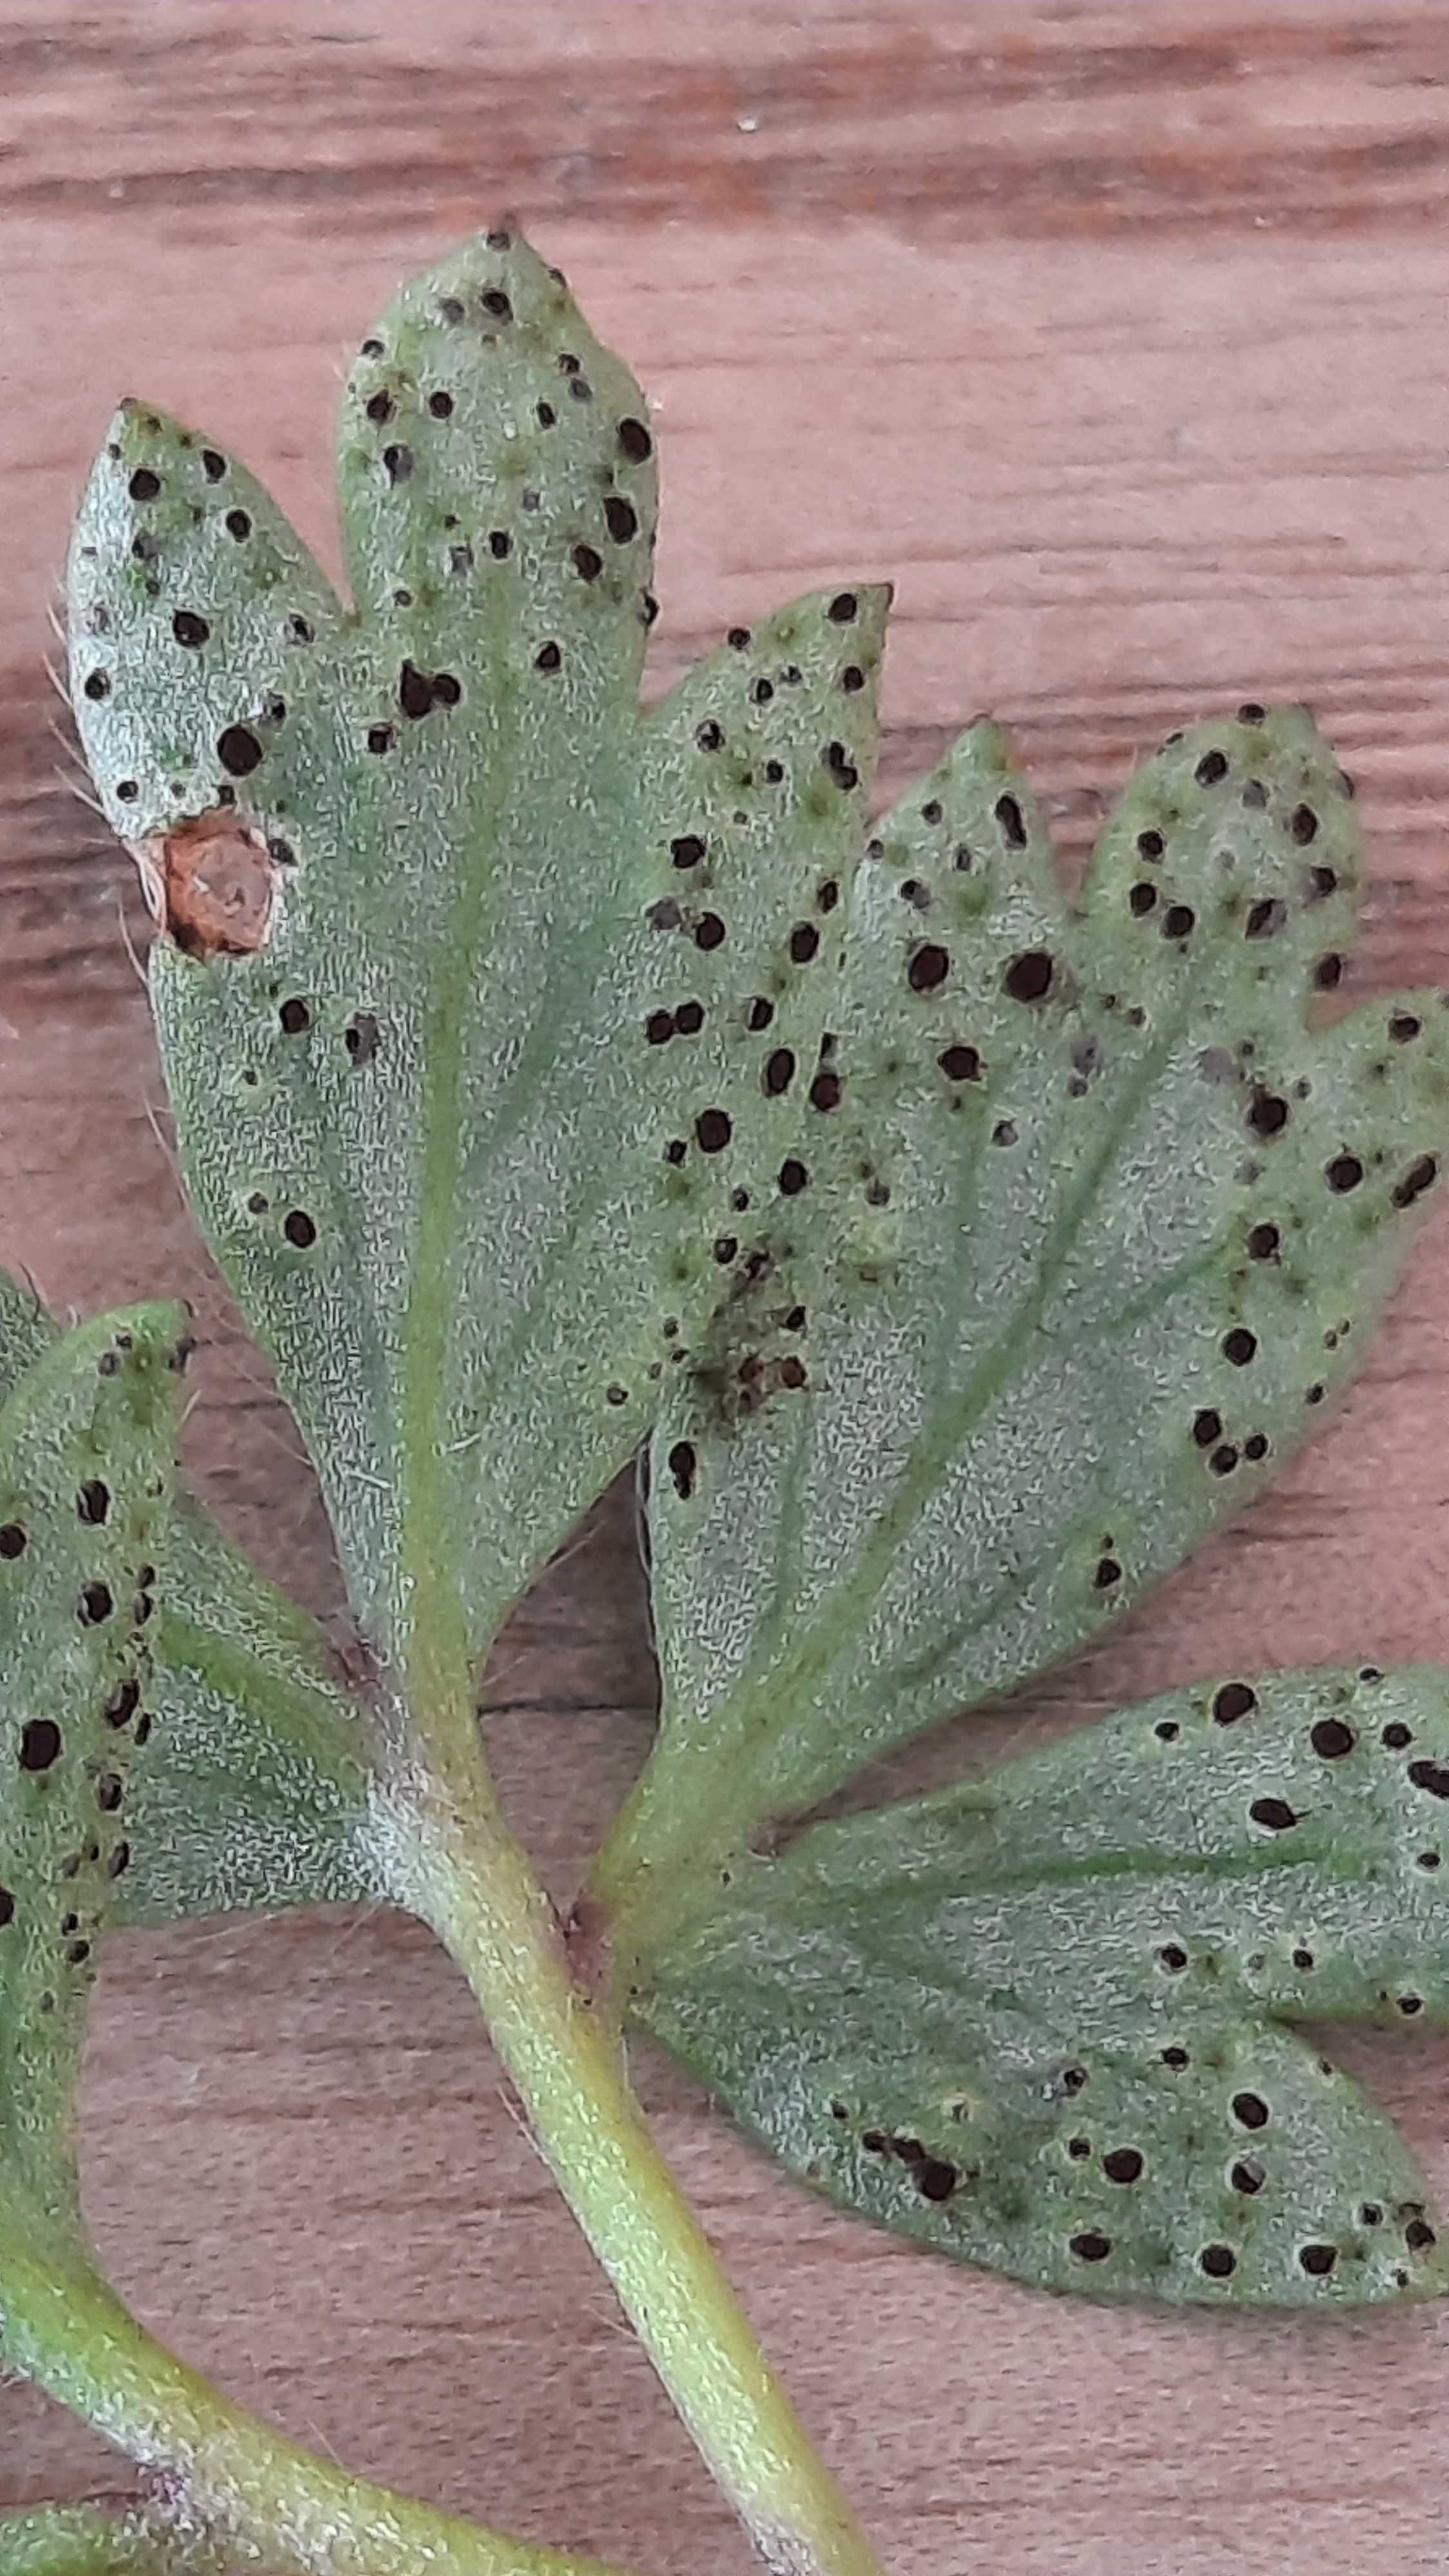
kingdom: Fungi
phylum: Basidiomycota
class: Pucciniomycetes
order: Pucciniales
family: Tranzscheliaceae
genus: Tranzschelia
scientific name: Tranzschelia anemones
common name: anemone-knæksporerust
